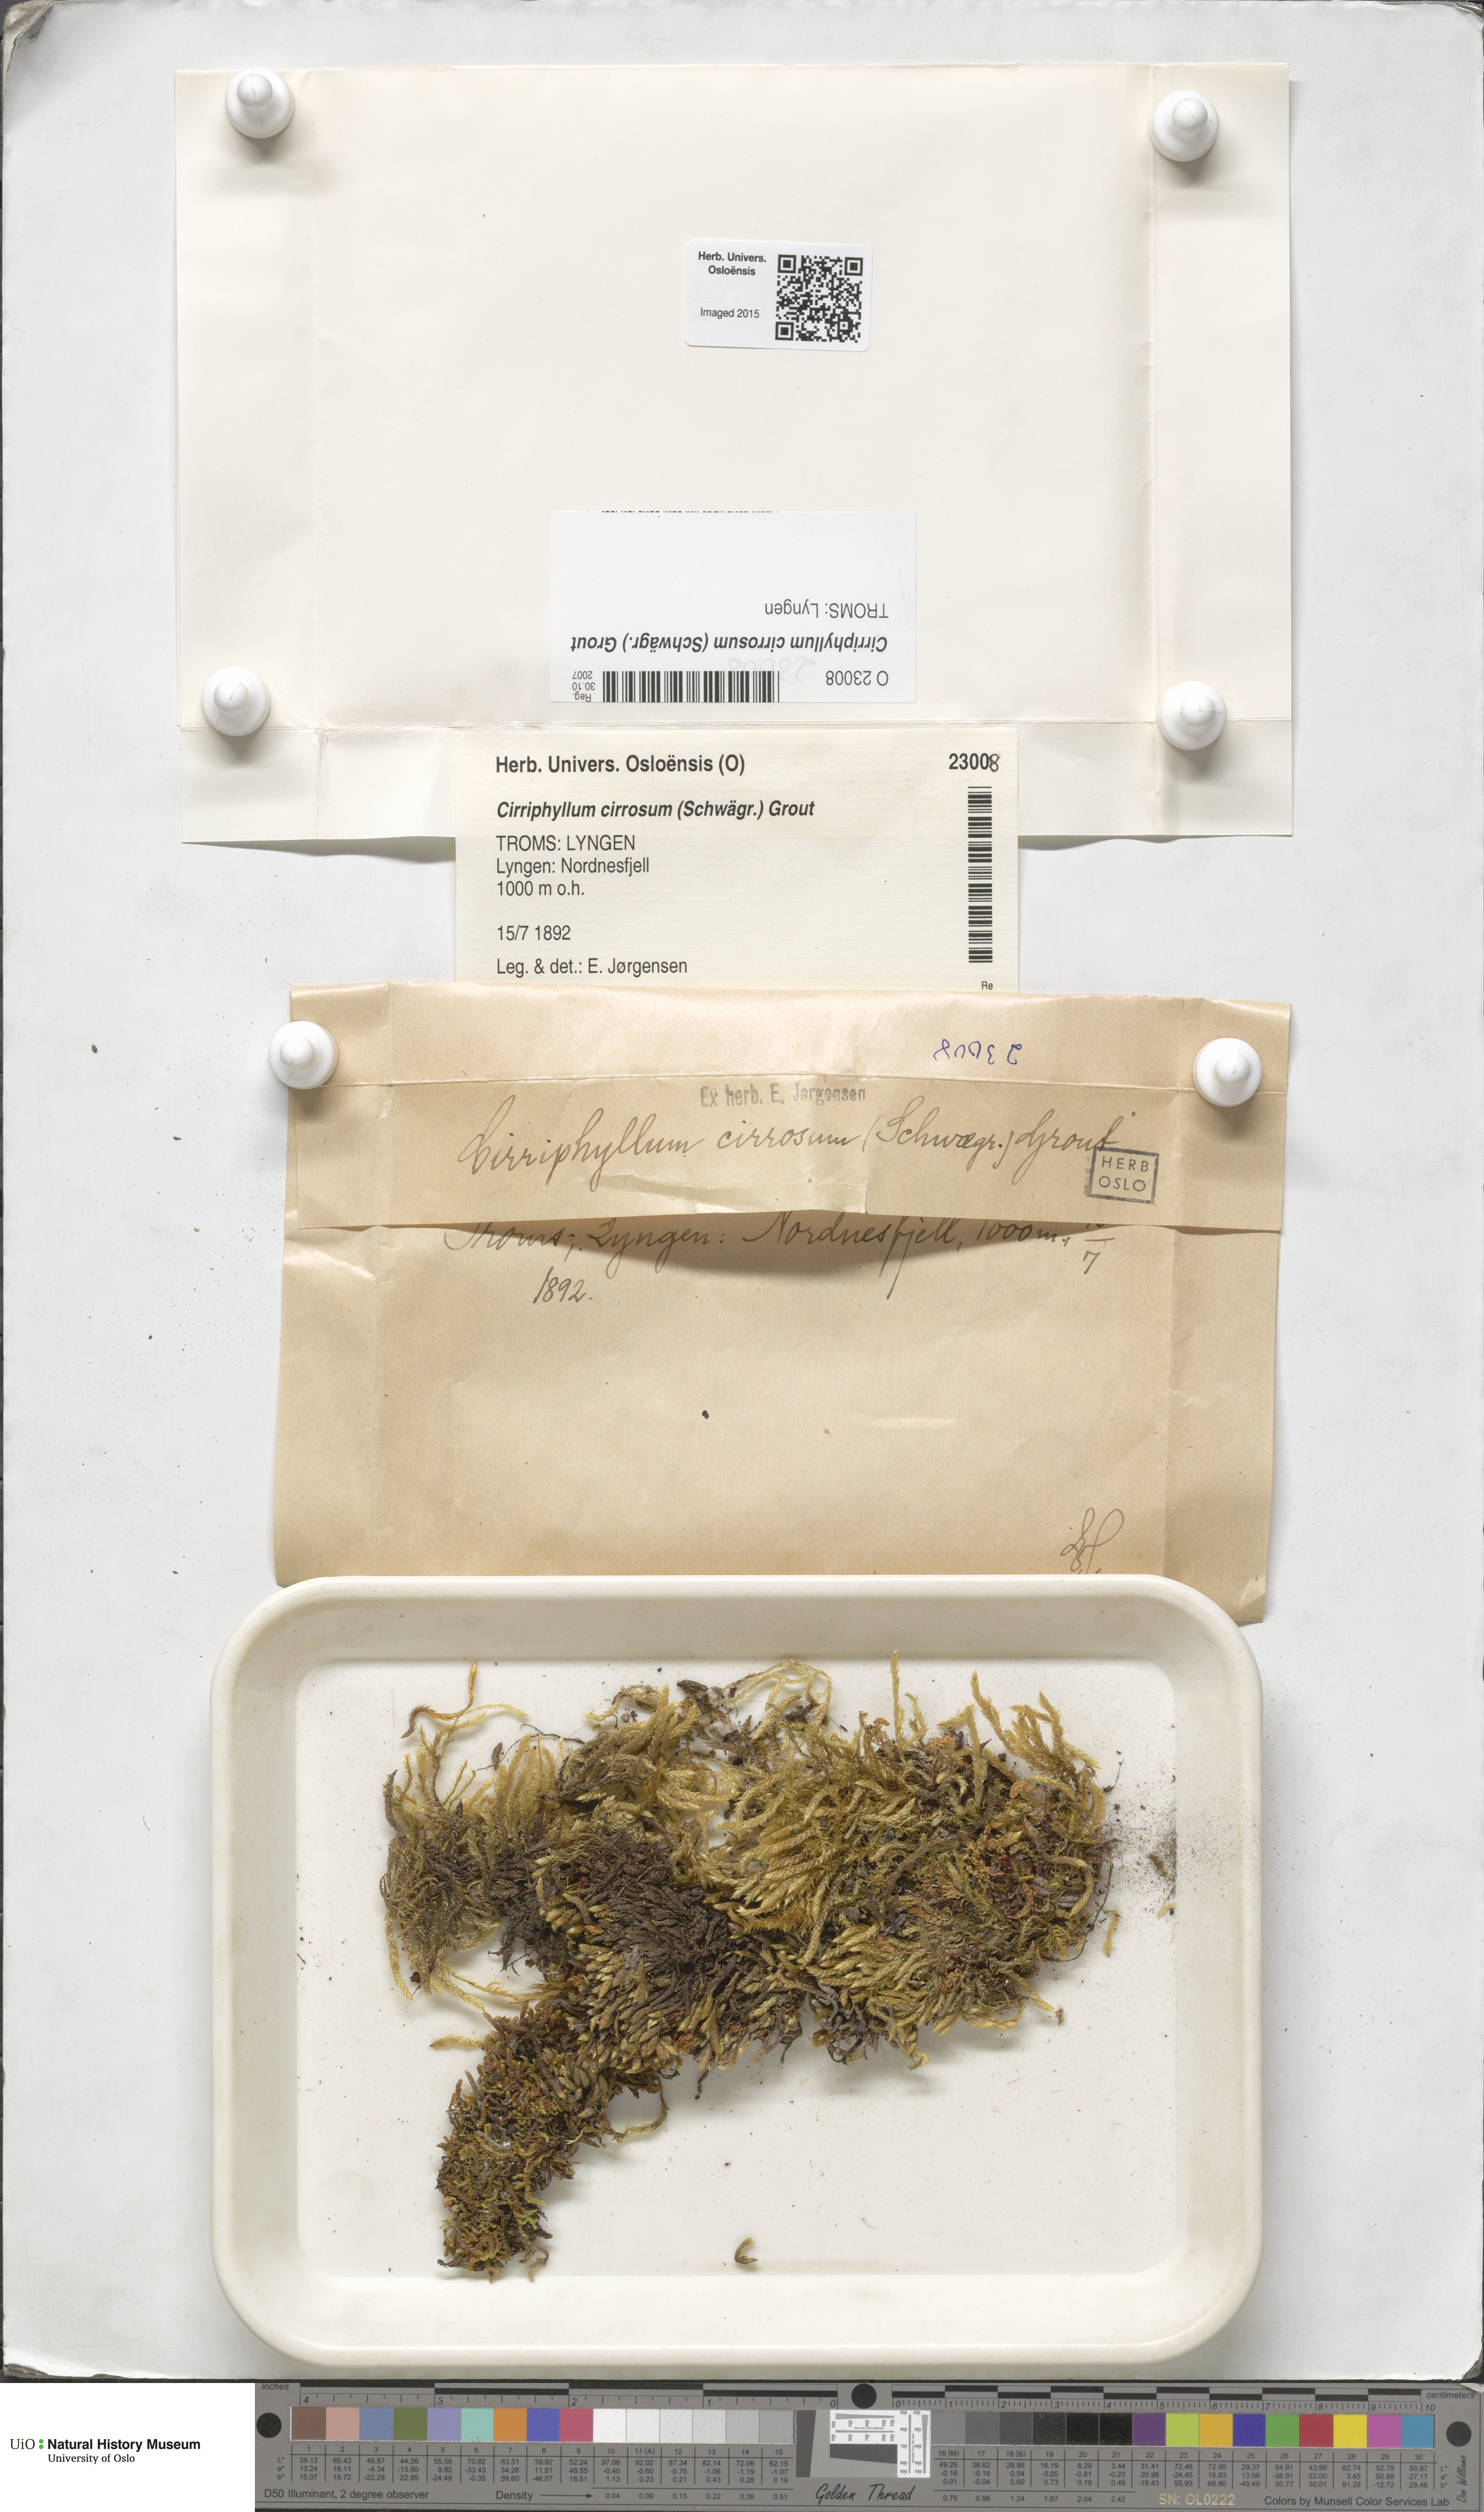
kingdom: Plantae
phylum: Bryophyta
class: Bryopsida
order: Hypnales
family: Brachytheciaceae
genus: Brachythecium
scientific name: Brachythecium cirrosum
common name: Tendril feather-moss
